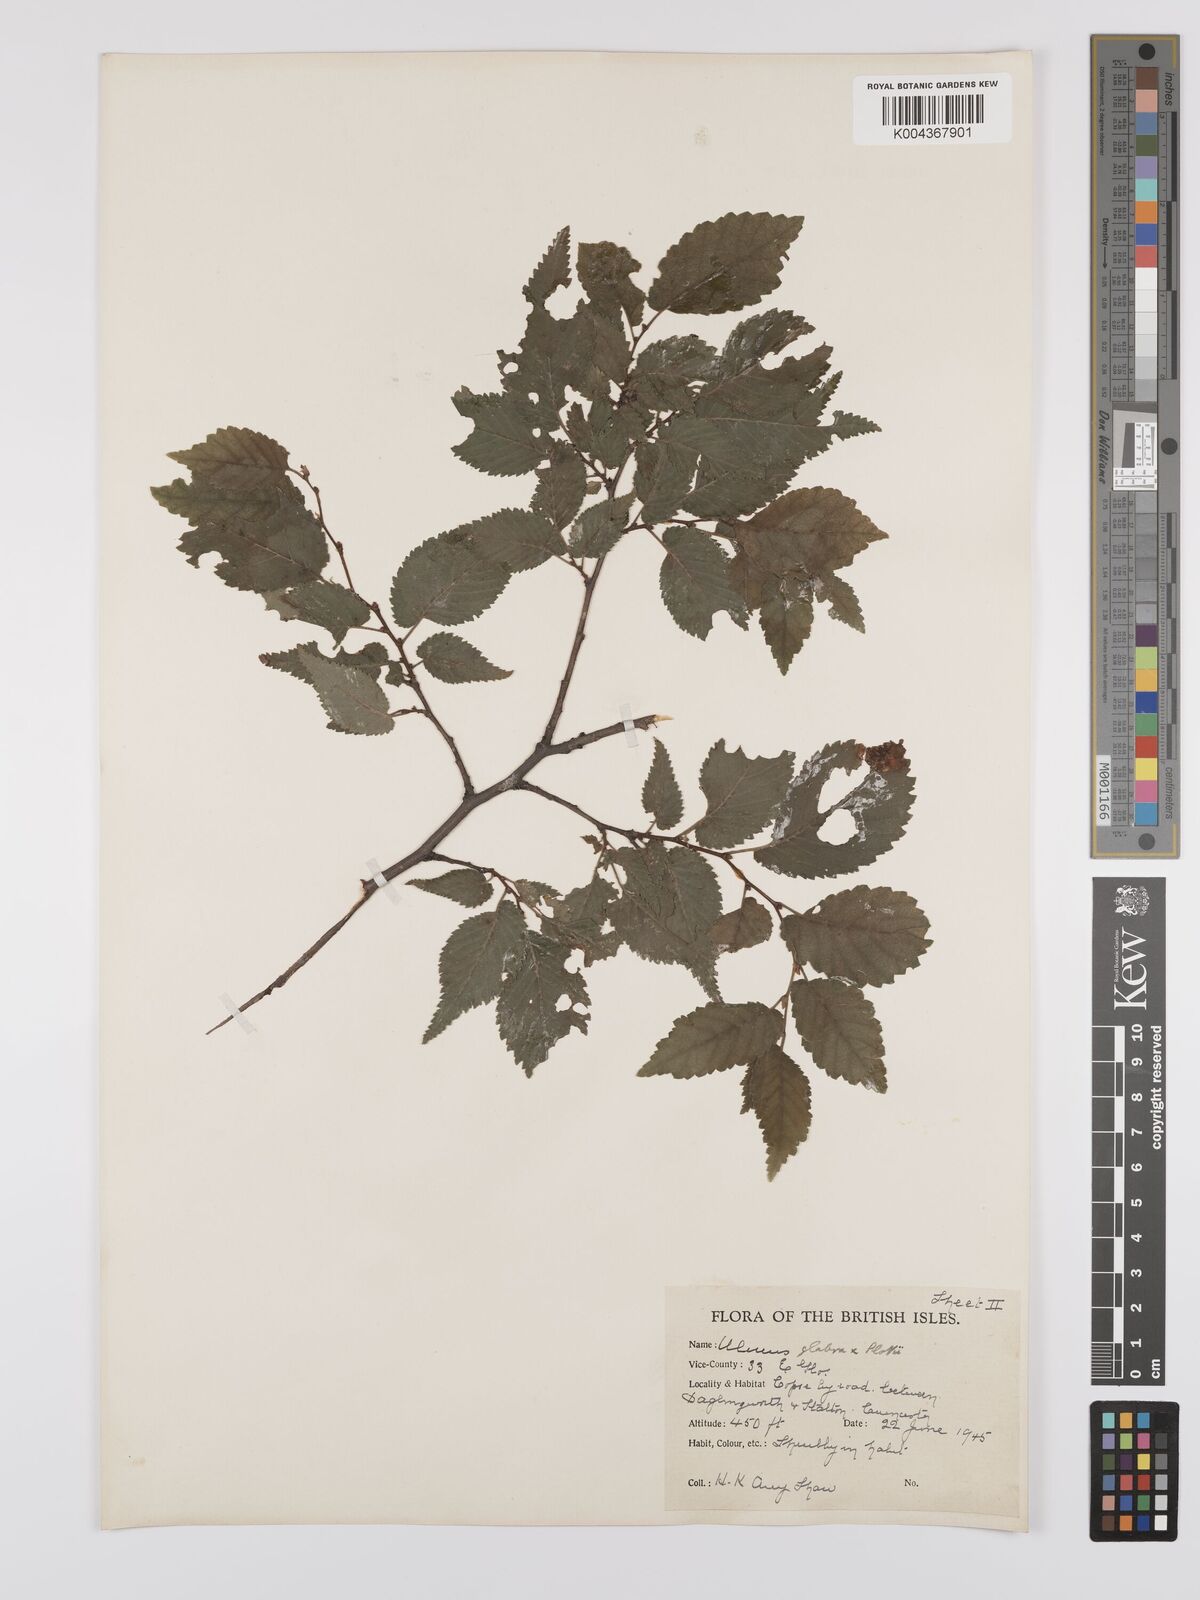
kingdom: Plantae
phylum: Tracheophyta
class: Magnoliopsida
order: Rosales
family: Ulmaceae
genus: Ulmus
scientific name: Ulmus glabra
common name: Wych elm
